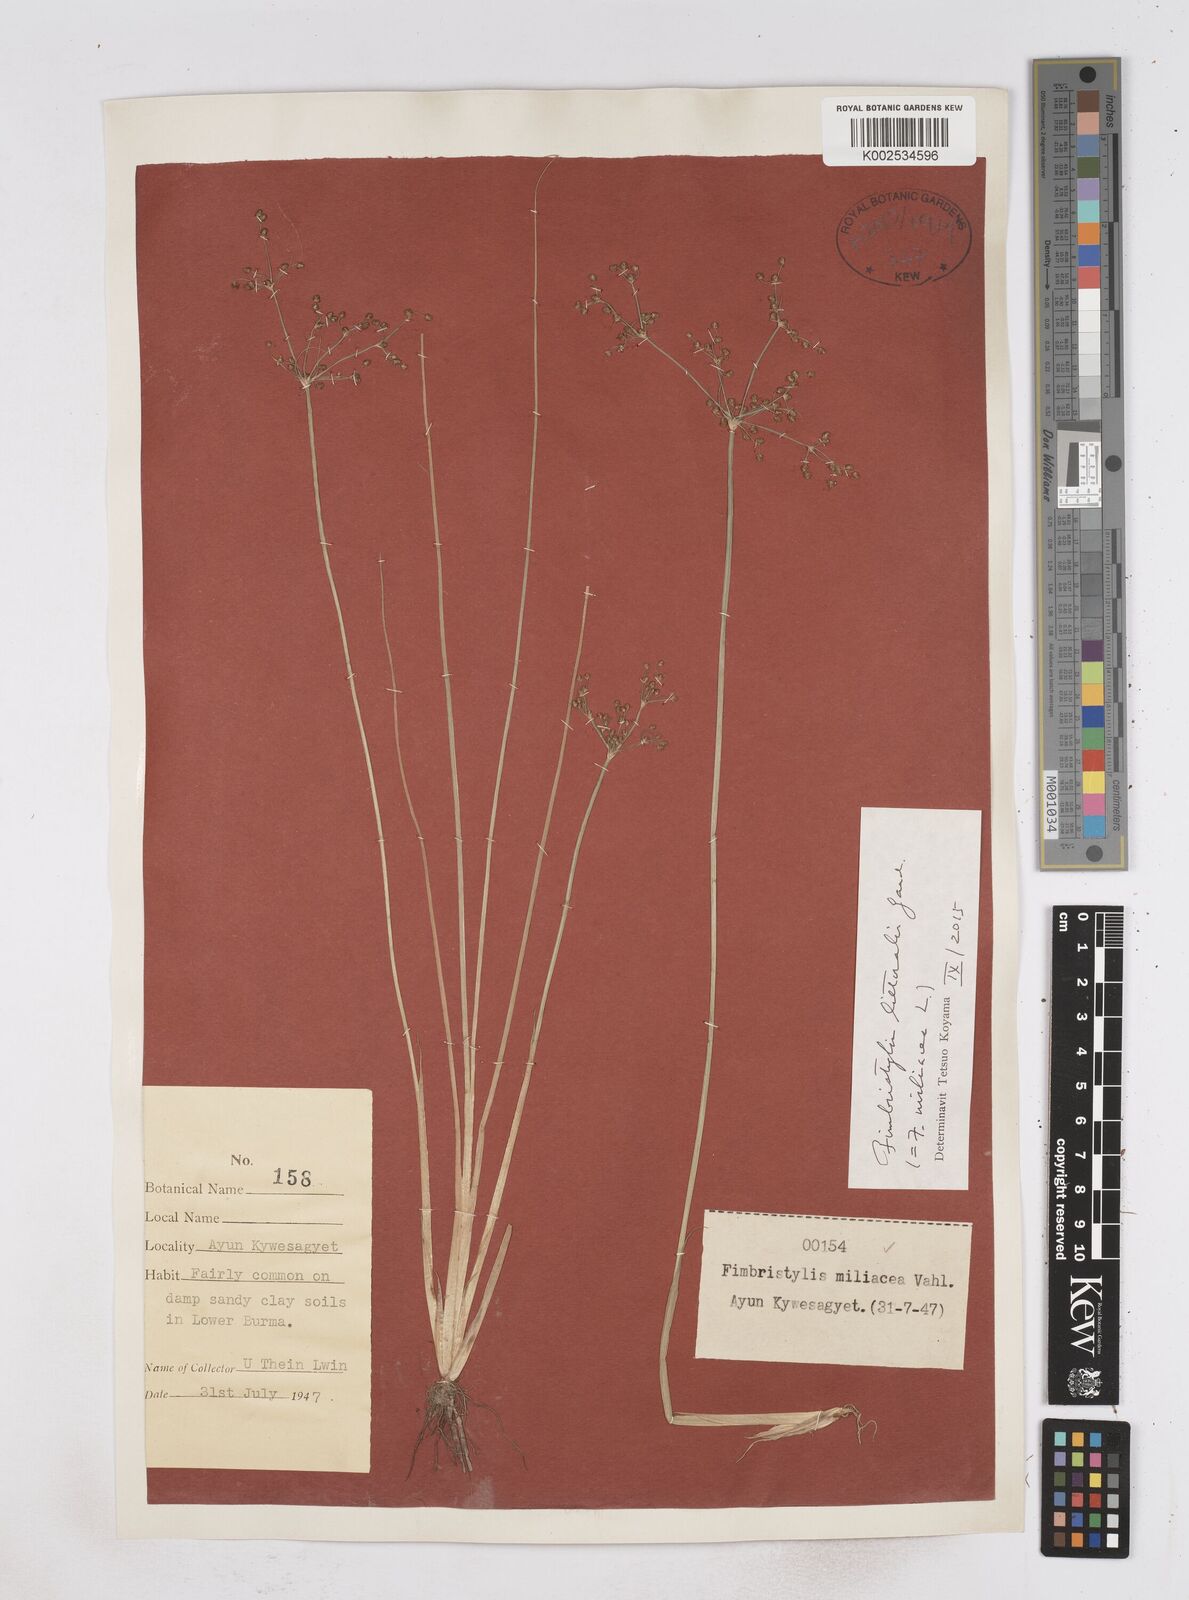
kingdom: Plantae
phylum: Tracheophyta
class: Liliopsida
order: Poales
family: Cyperaceae
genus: Fimbristylis
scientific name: Fimbristylis littoralis
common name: Fimbry
